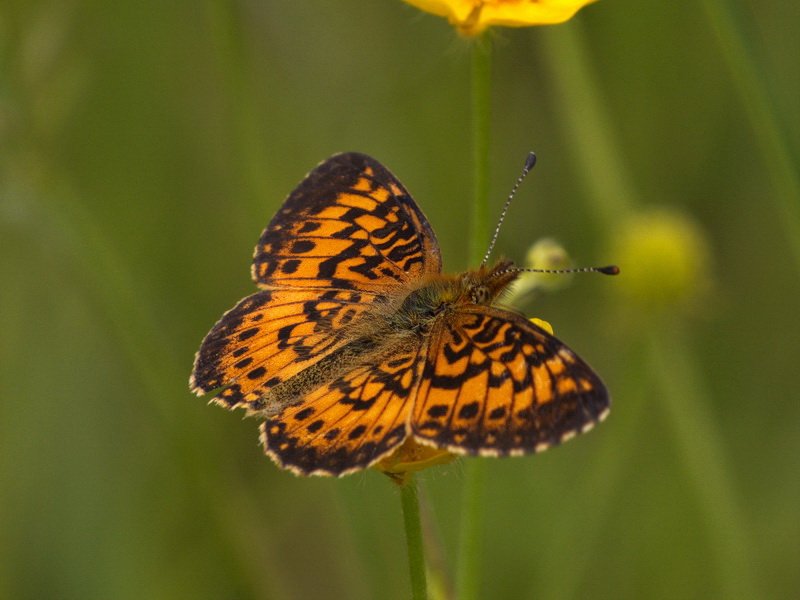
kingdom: Animalia
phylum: Arthropoda
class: Insecta
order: Lepidoptera
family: Nymphalidae
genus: Boloria
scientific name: Boloria selene
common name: Silver-bordered Fritillary
